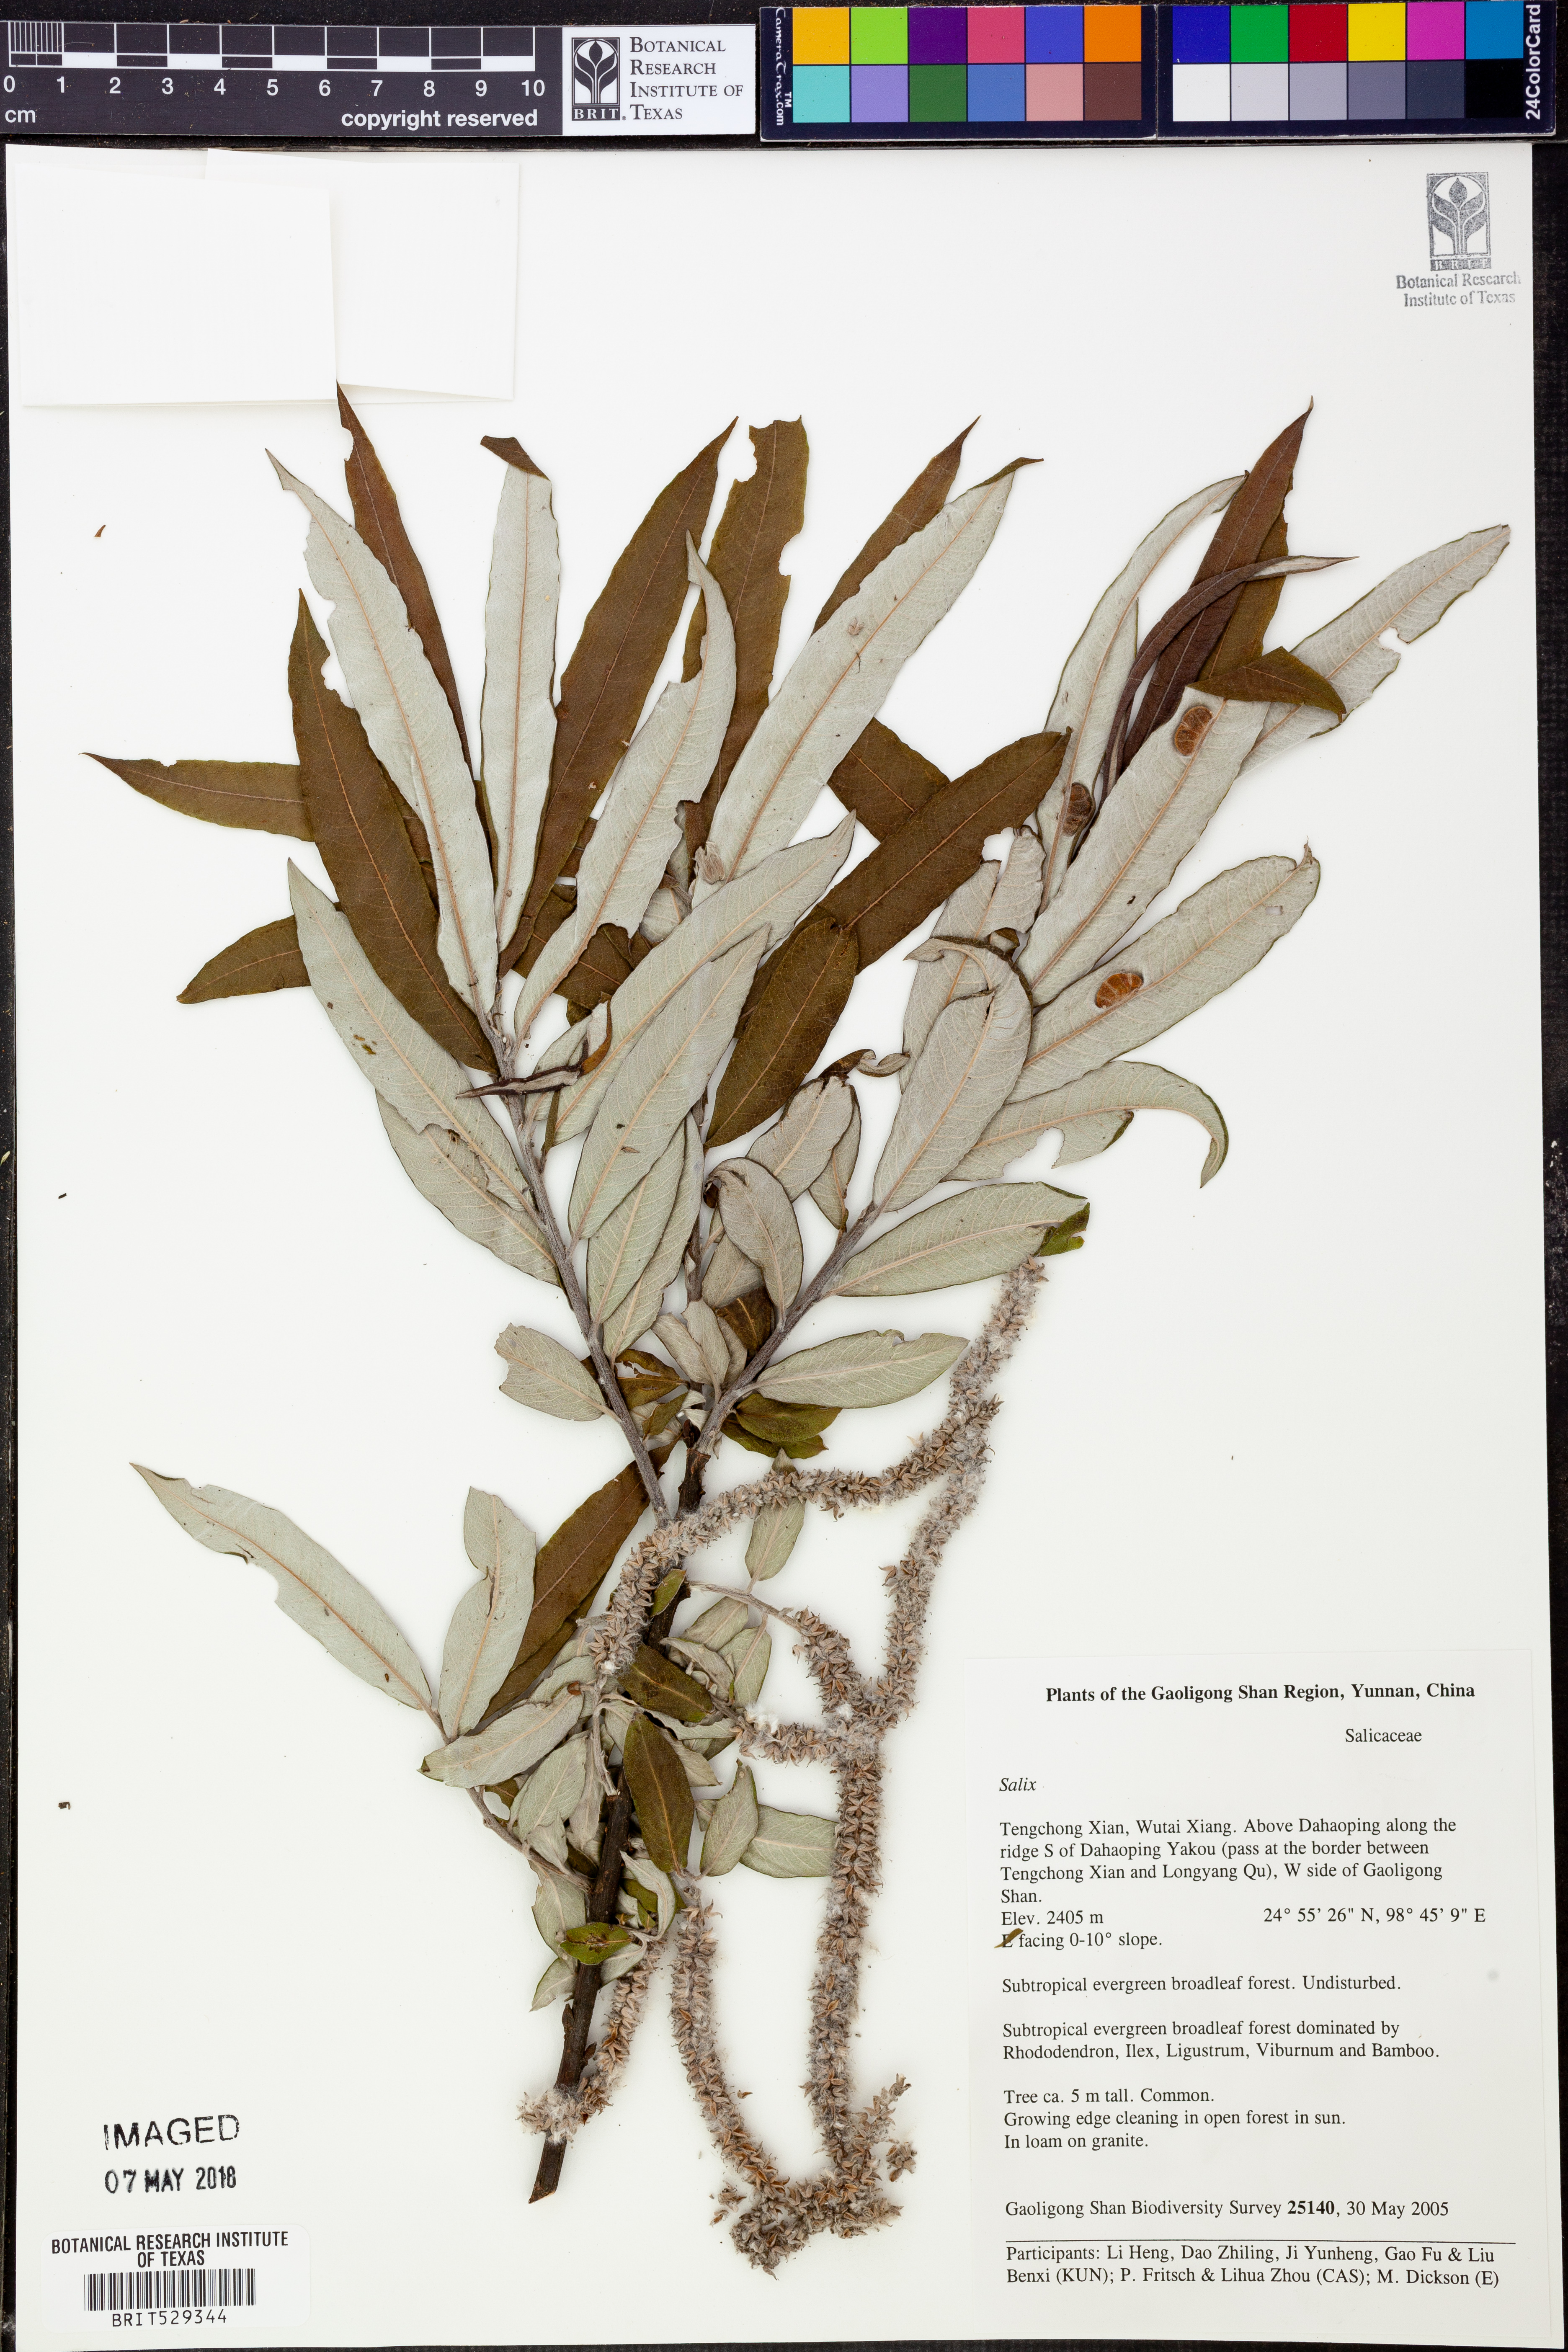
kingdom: Plantae
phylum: Tracheophyta
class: Magnoliopsida
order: Malpighiales
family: Salicaceae
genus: Salix
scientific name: Salix
